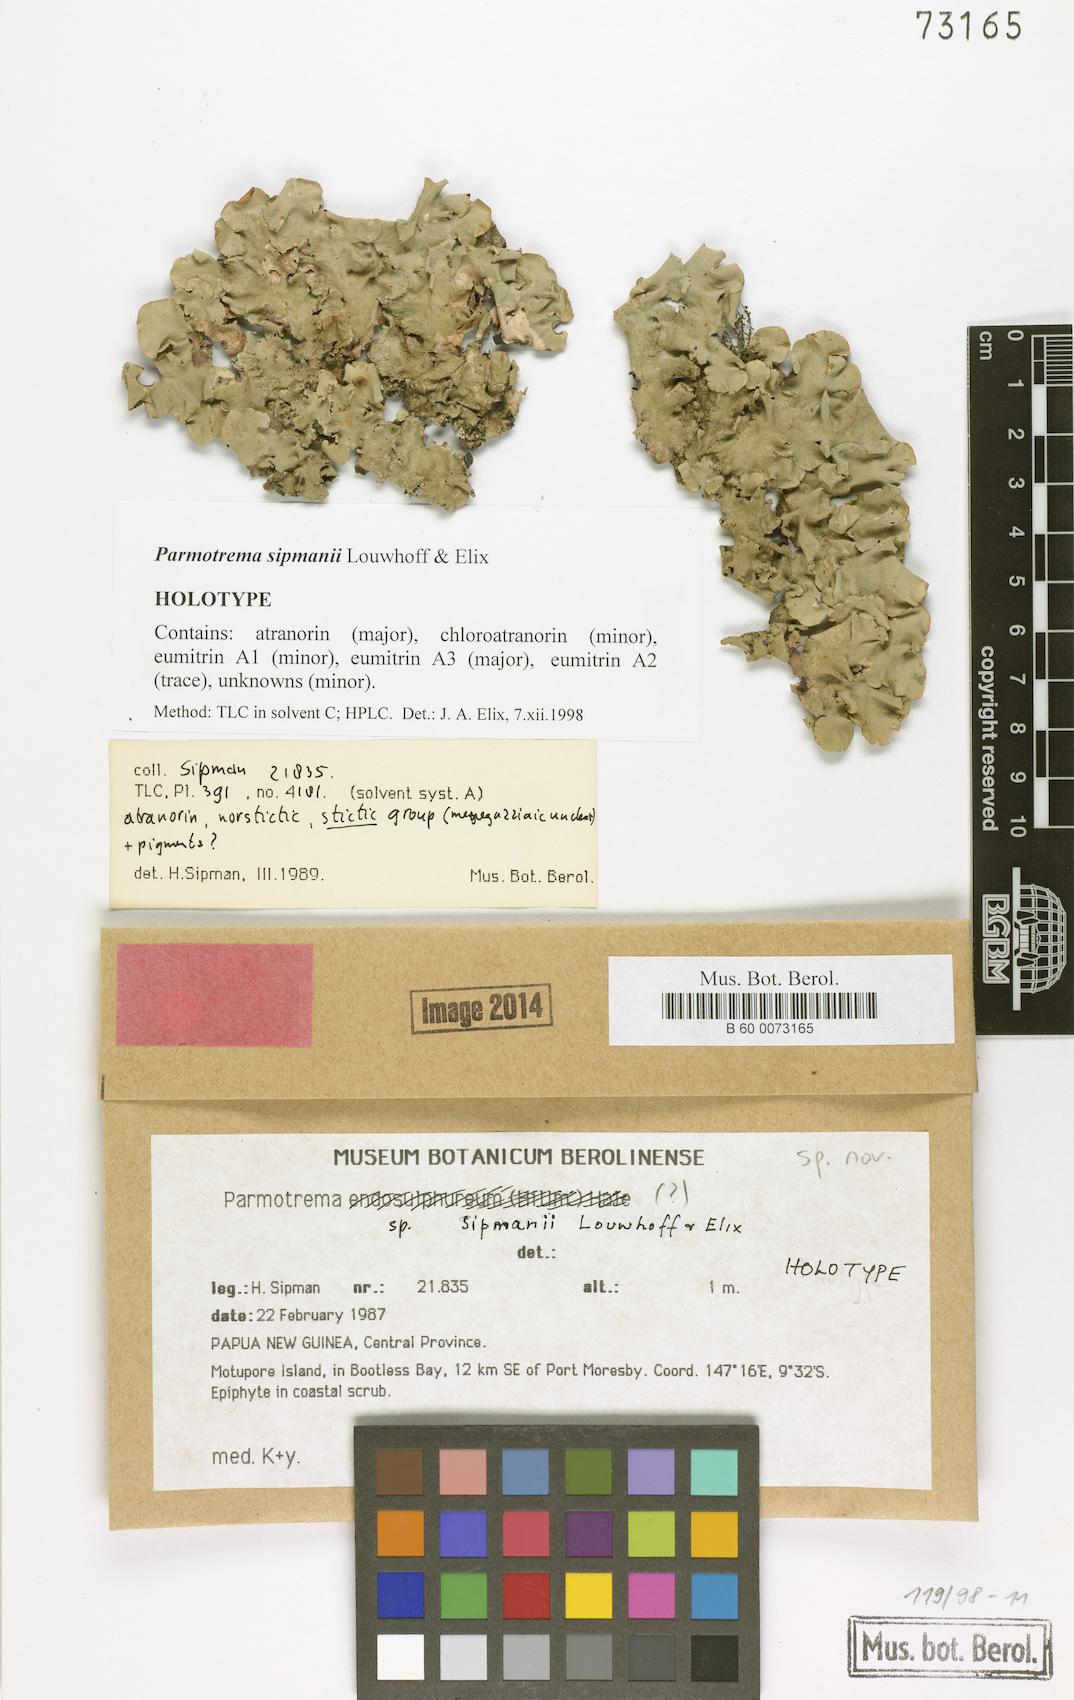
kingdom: Fungi
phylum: Ascomycota
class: Lecanoromycetes
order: Lecanorales
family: Parmeliaceae
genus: Parmotrema
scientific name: Parmotrema
